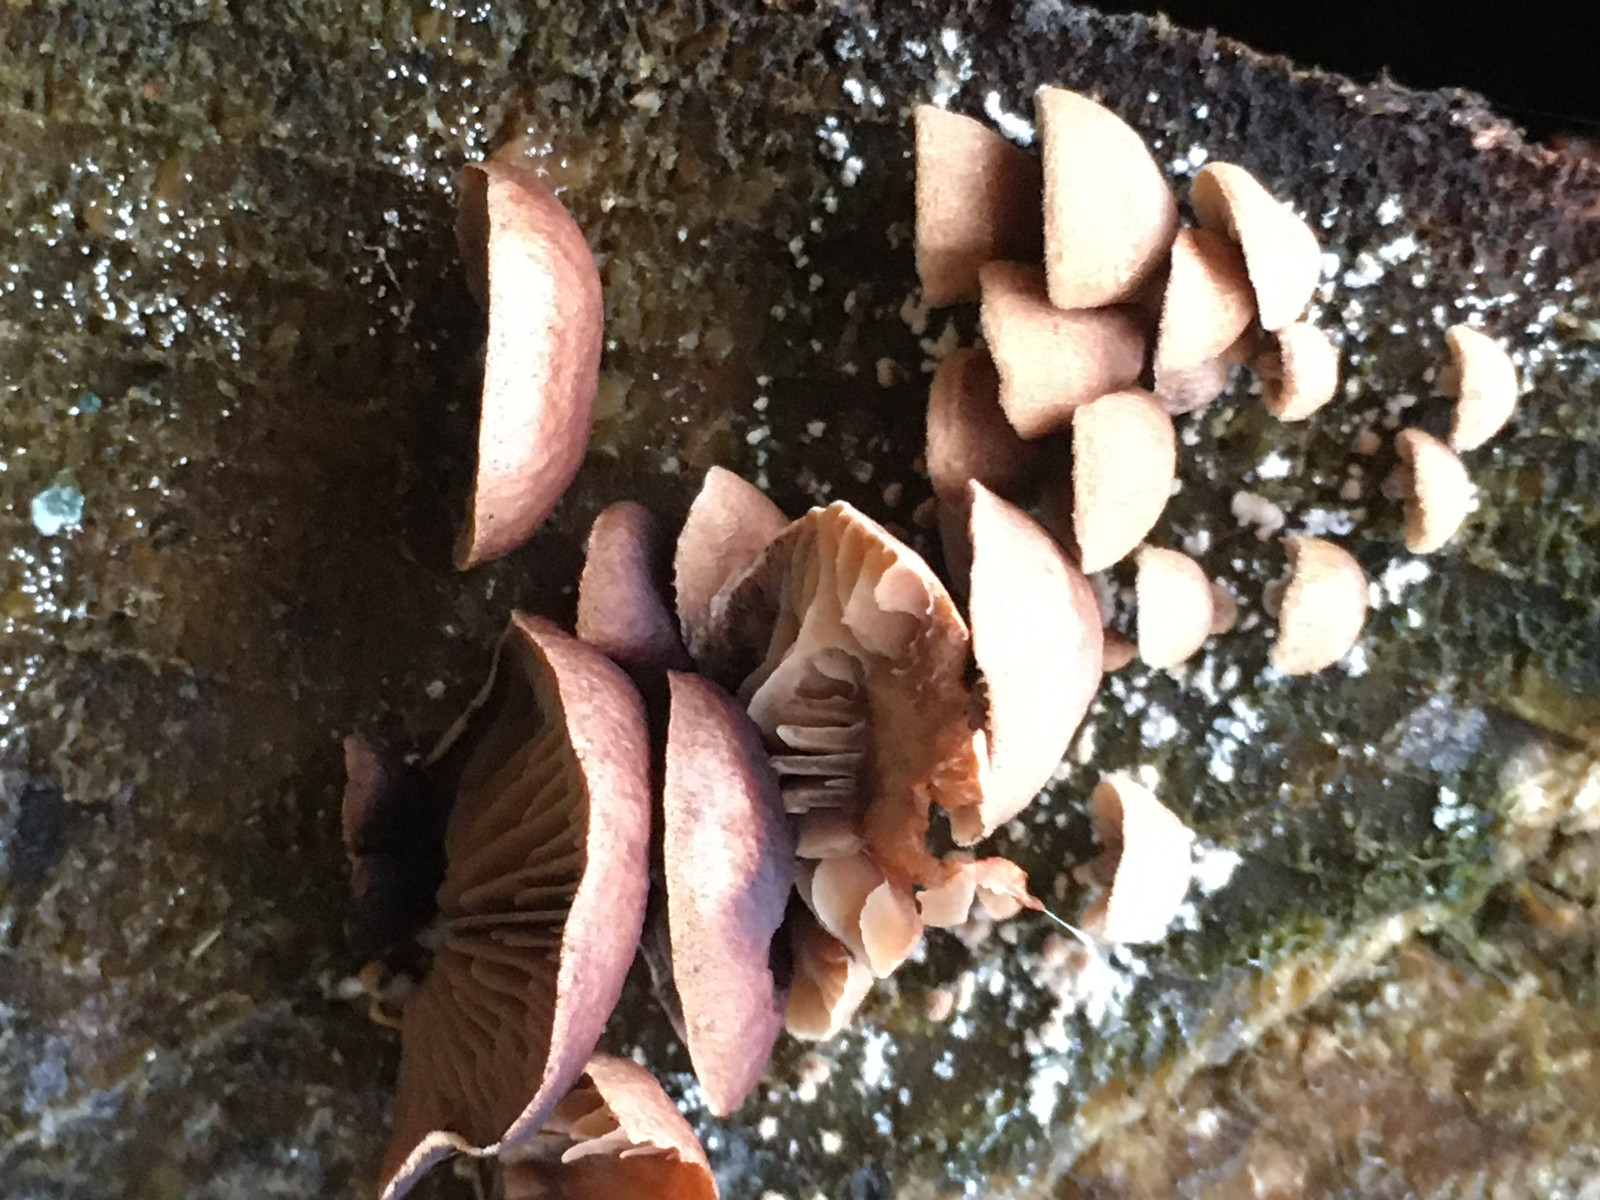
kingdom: Fungi
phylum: Basidiomycota
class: Agaricomycetes
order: Agaricales
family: Strophariaceae
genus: Deconica
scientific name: Deconica horizontalis
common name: ved-stråhat
